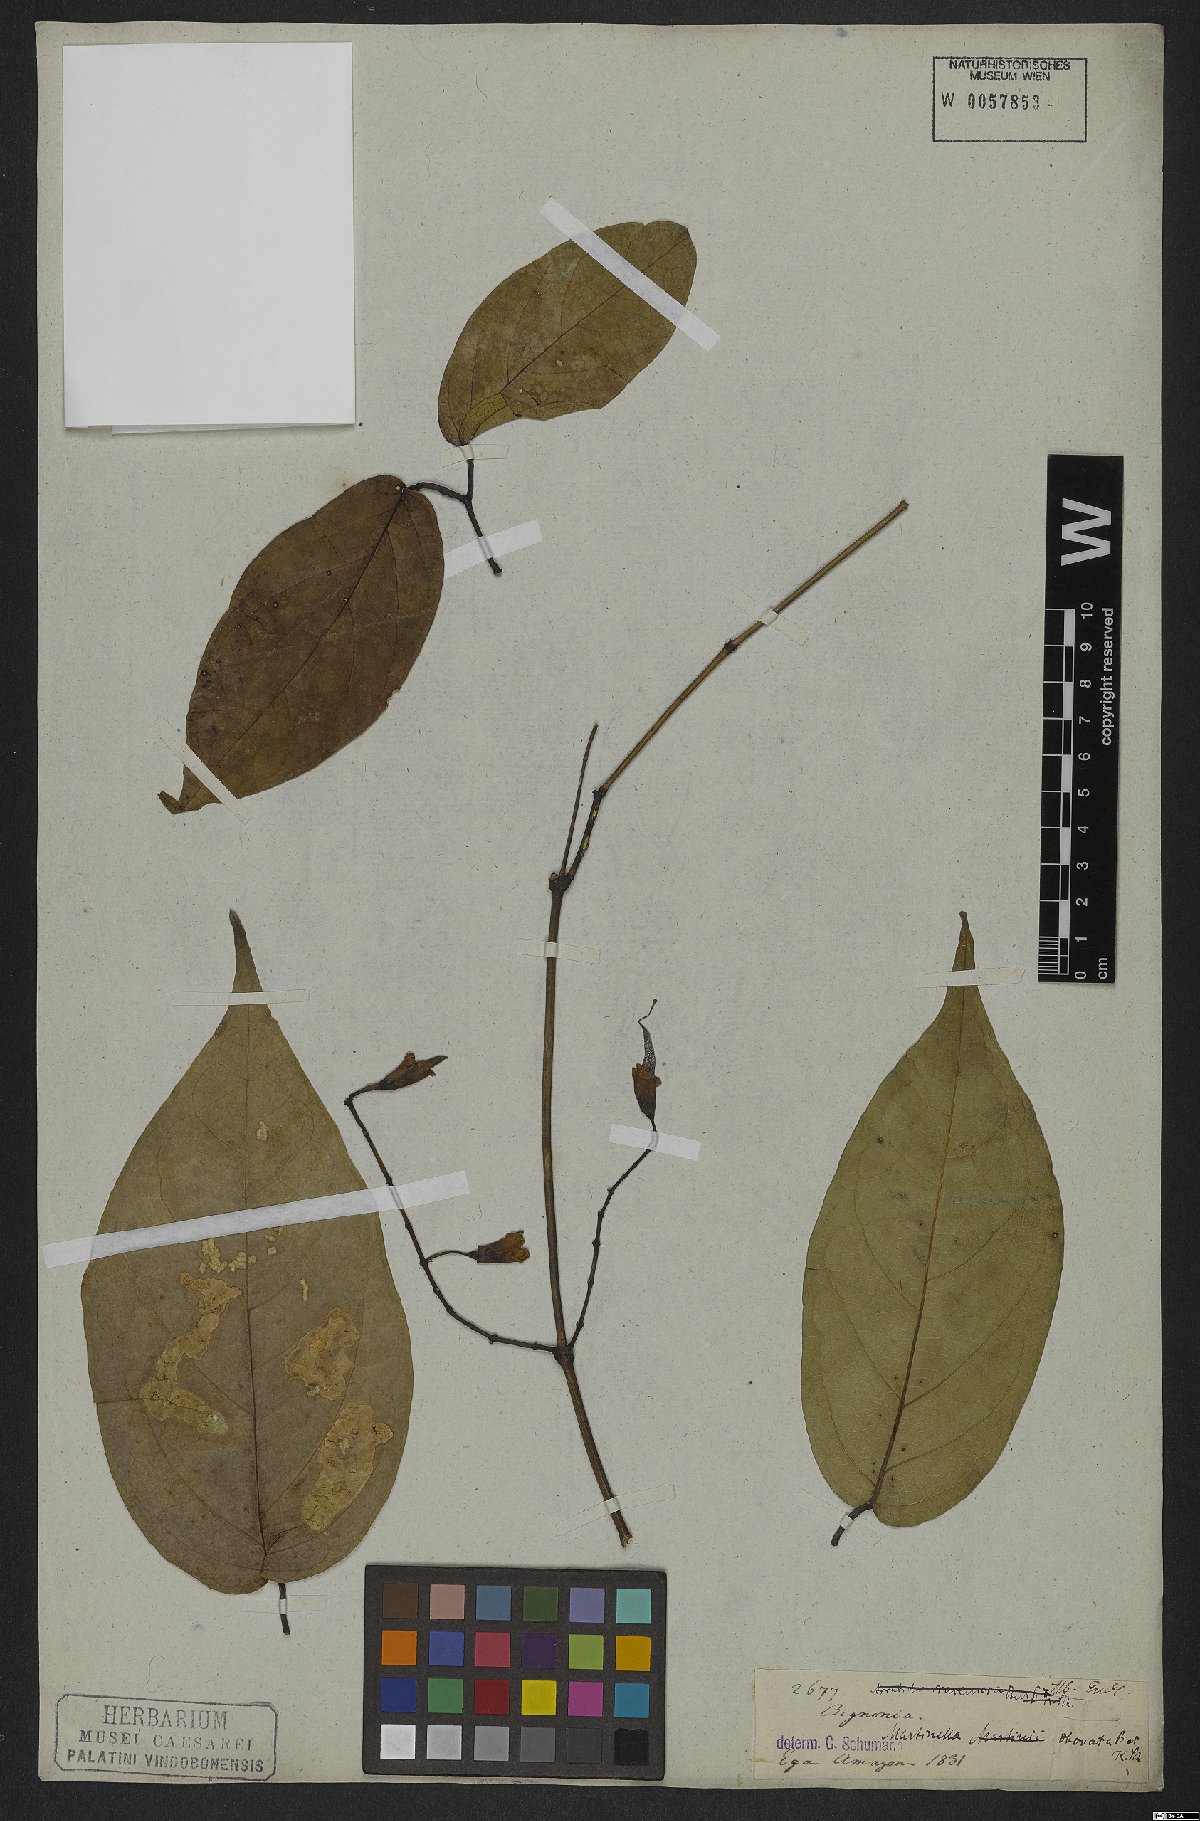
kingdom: Animalia
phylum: Arthropoda
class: Insecta
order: Coleoptera
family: Chrysomelidae
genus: Martinella
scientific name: Martinella obovata
